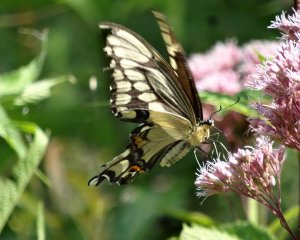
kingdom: Animalia
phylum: Arthropoda
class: Insecta
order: Lepidoptera
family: Papilionidae
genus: Papilio
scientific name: Papilio cresphontes
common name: Eastern Giant Swallowtail
